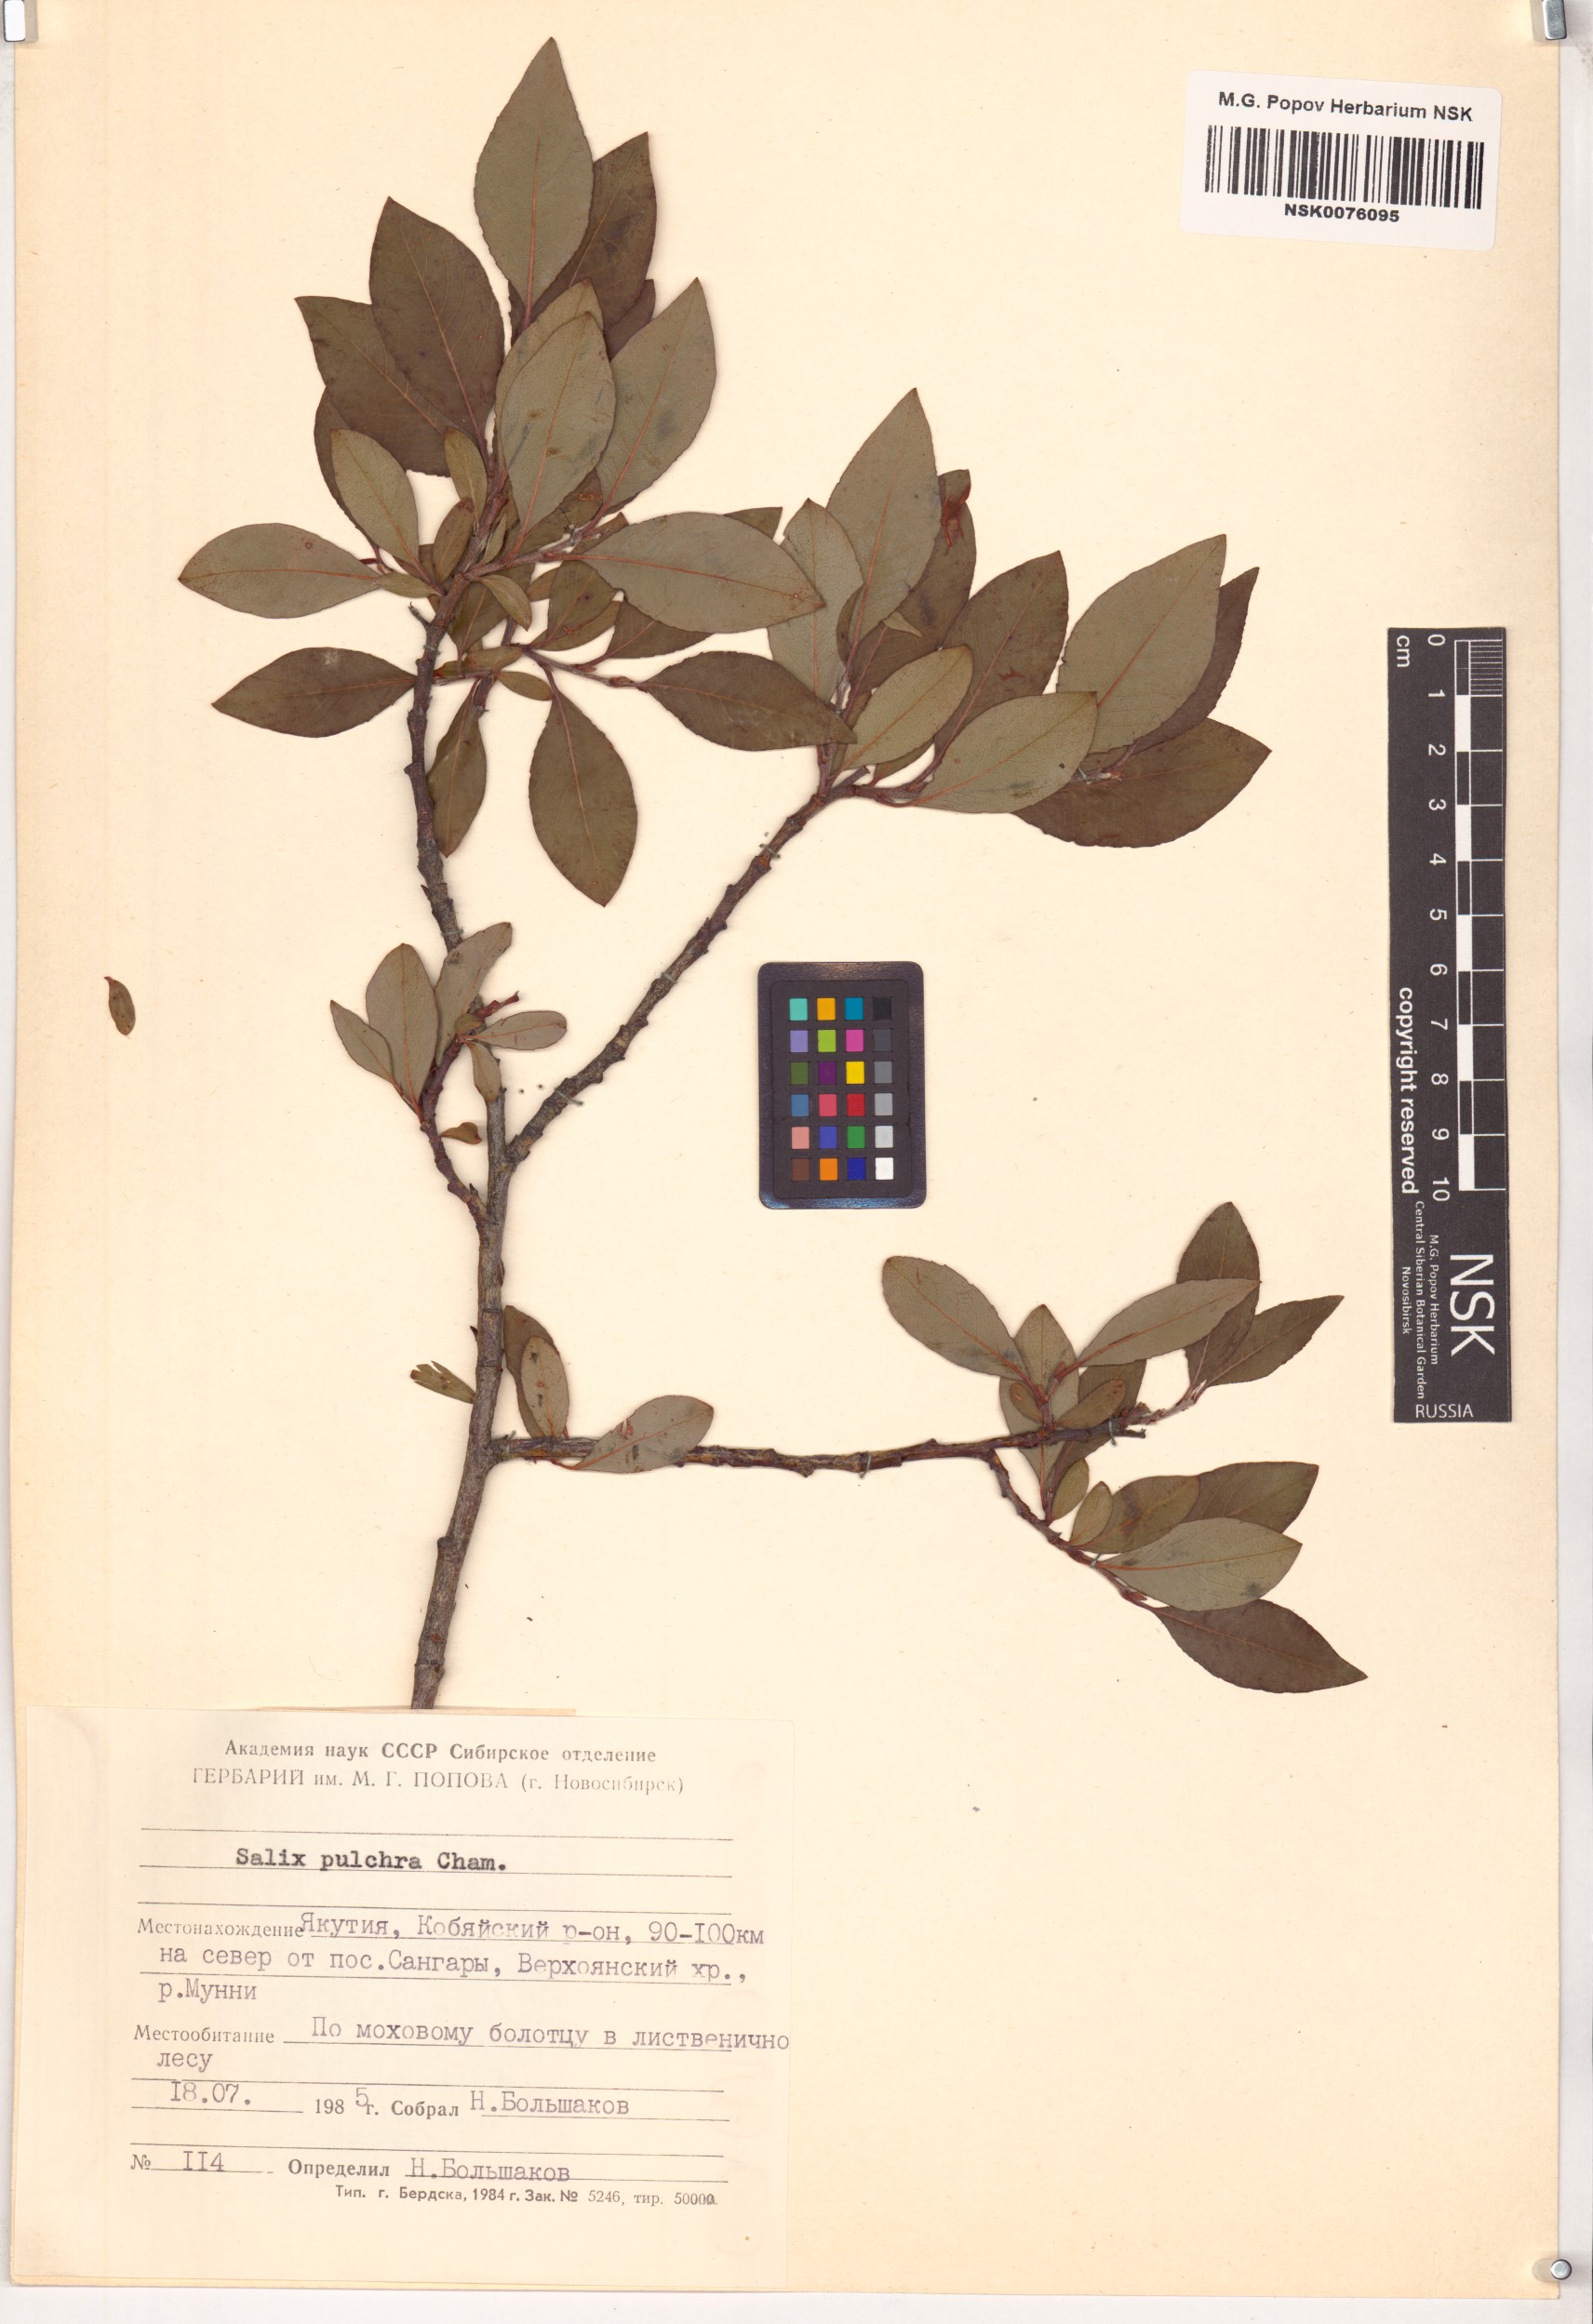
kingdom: Plantae
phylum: Tracheophyta
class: Magnoliopsida
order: Malpighiales
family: Salicaceae
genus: Salix
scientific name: Salix pulchra
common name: Diamond-leaved willow
